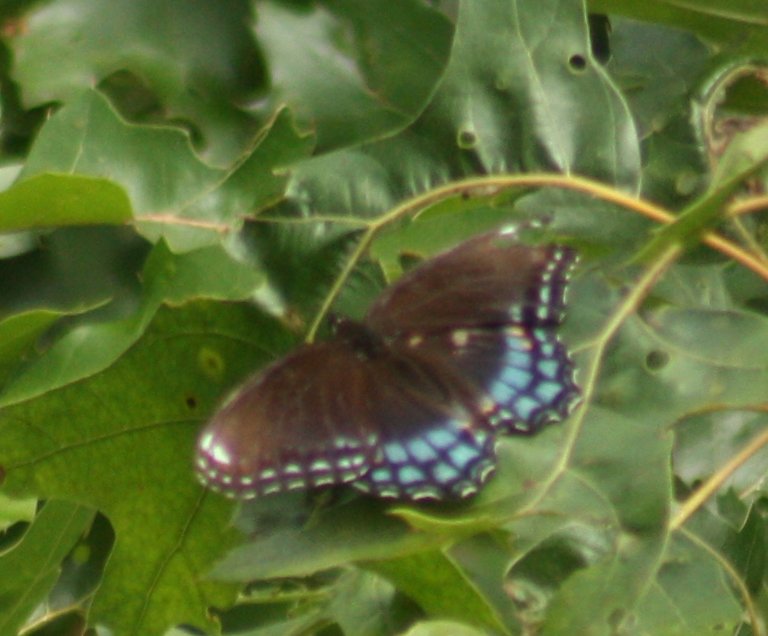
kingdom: Animalia
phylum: Arthropoda
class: Insecta
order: Lepidoptera
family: Nymphalidae
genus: Limenitis
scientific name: Limenitis astyanax
